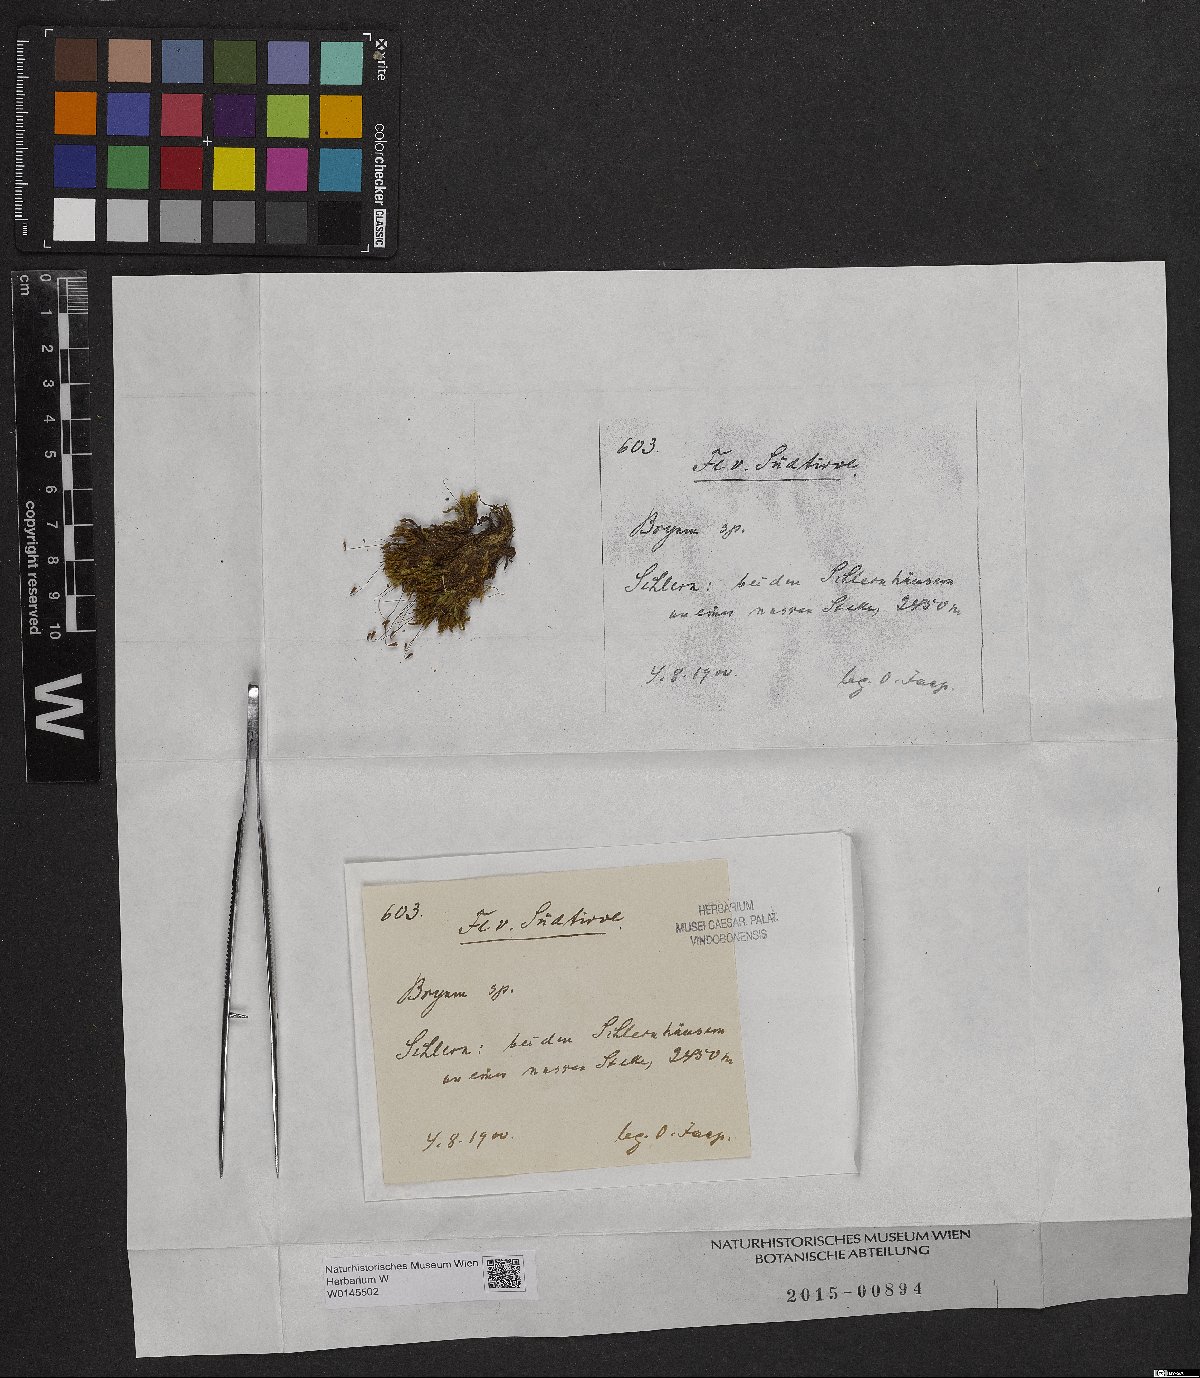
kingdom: Plantae
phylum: Bryophyta
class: Bryopsida
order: Bryales
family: Bryaceae
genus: Bryum
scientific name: Bryum
